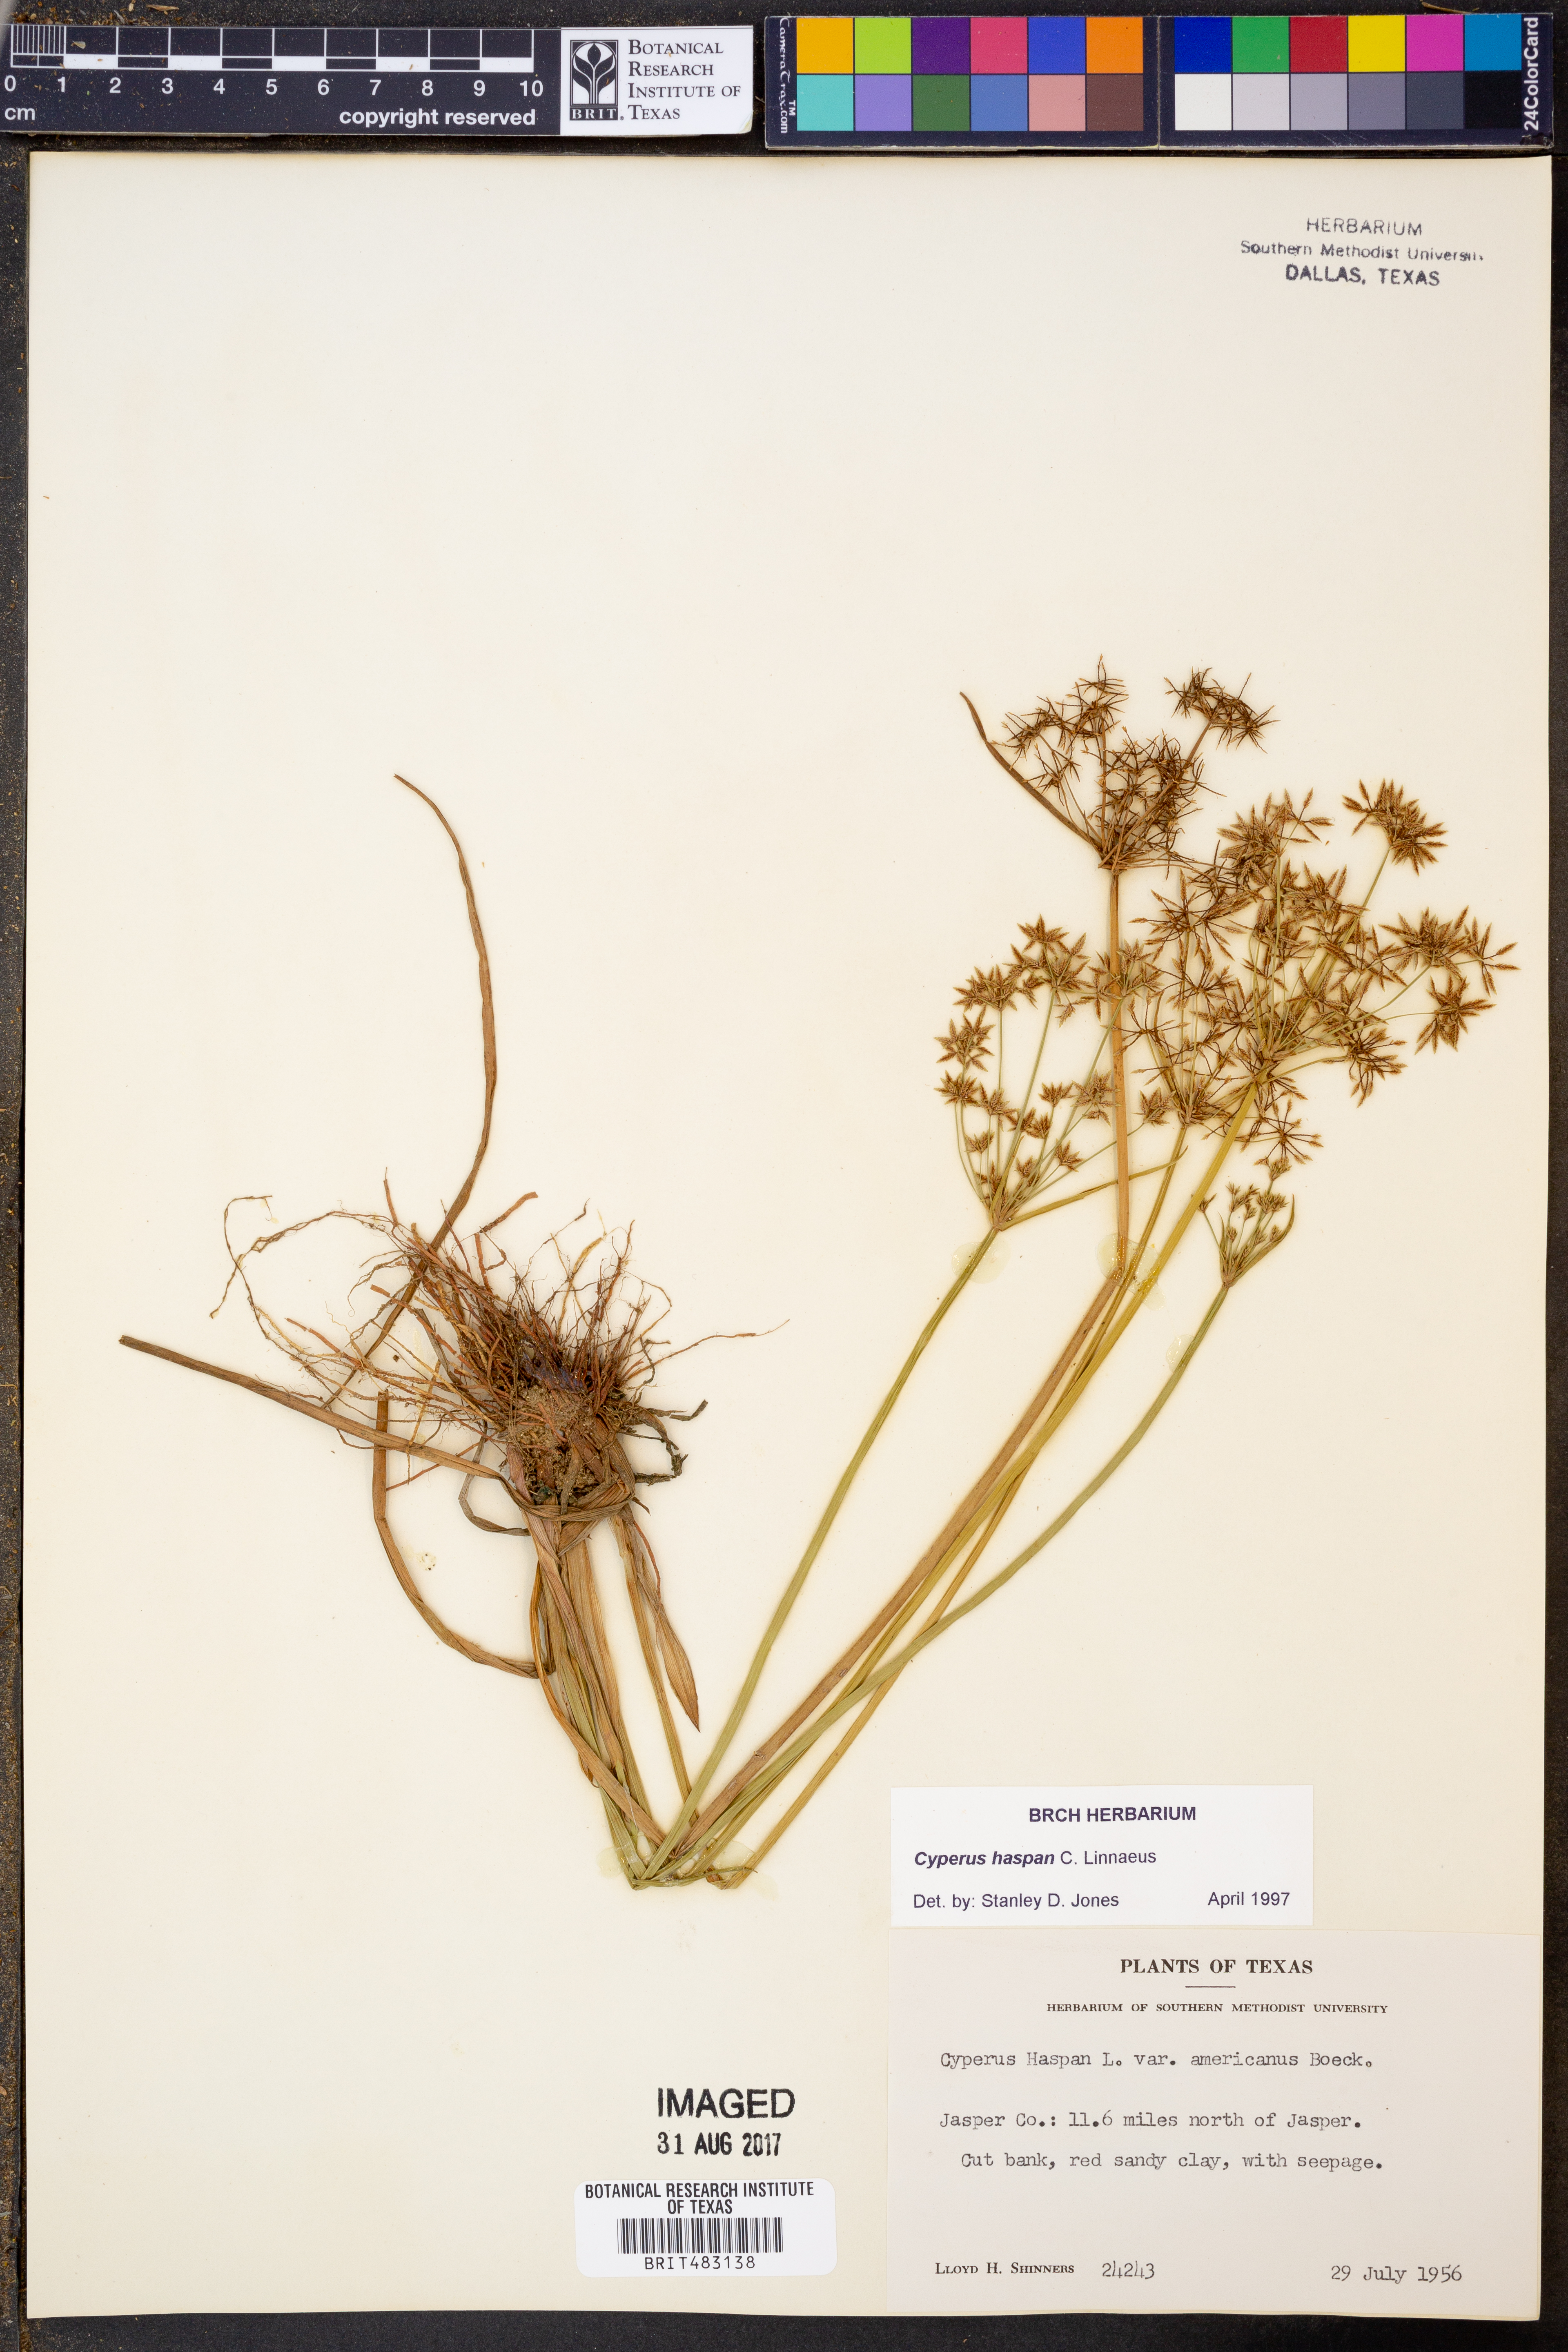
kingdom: Plantae
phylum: Tracheophyta
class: Liliopsida
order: Poales
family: Cyperaceae
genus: Cyperus
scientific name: Cyperus haspan
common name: Haspan flatsedge
